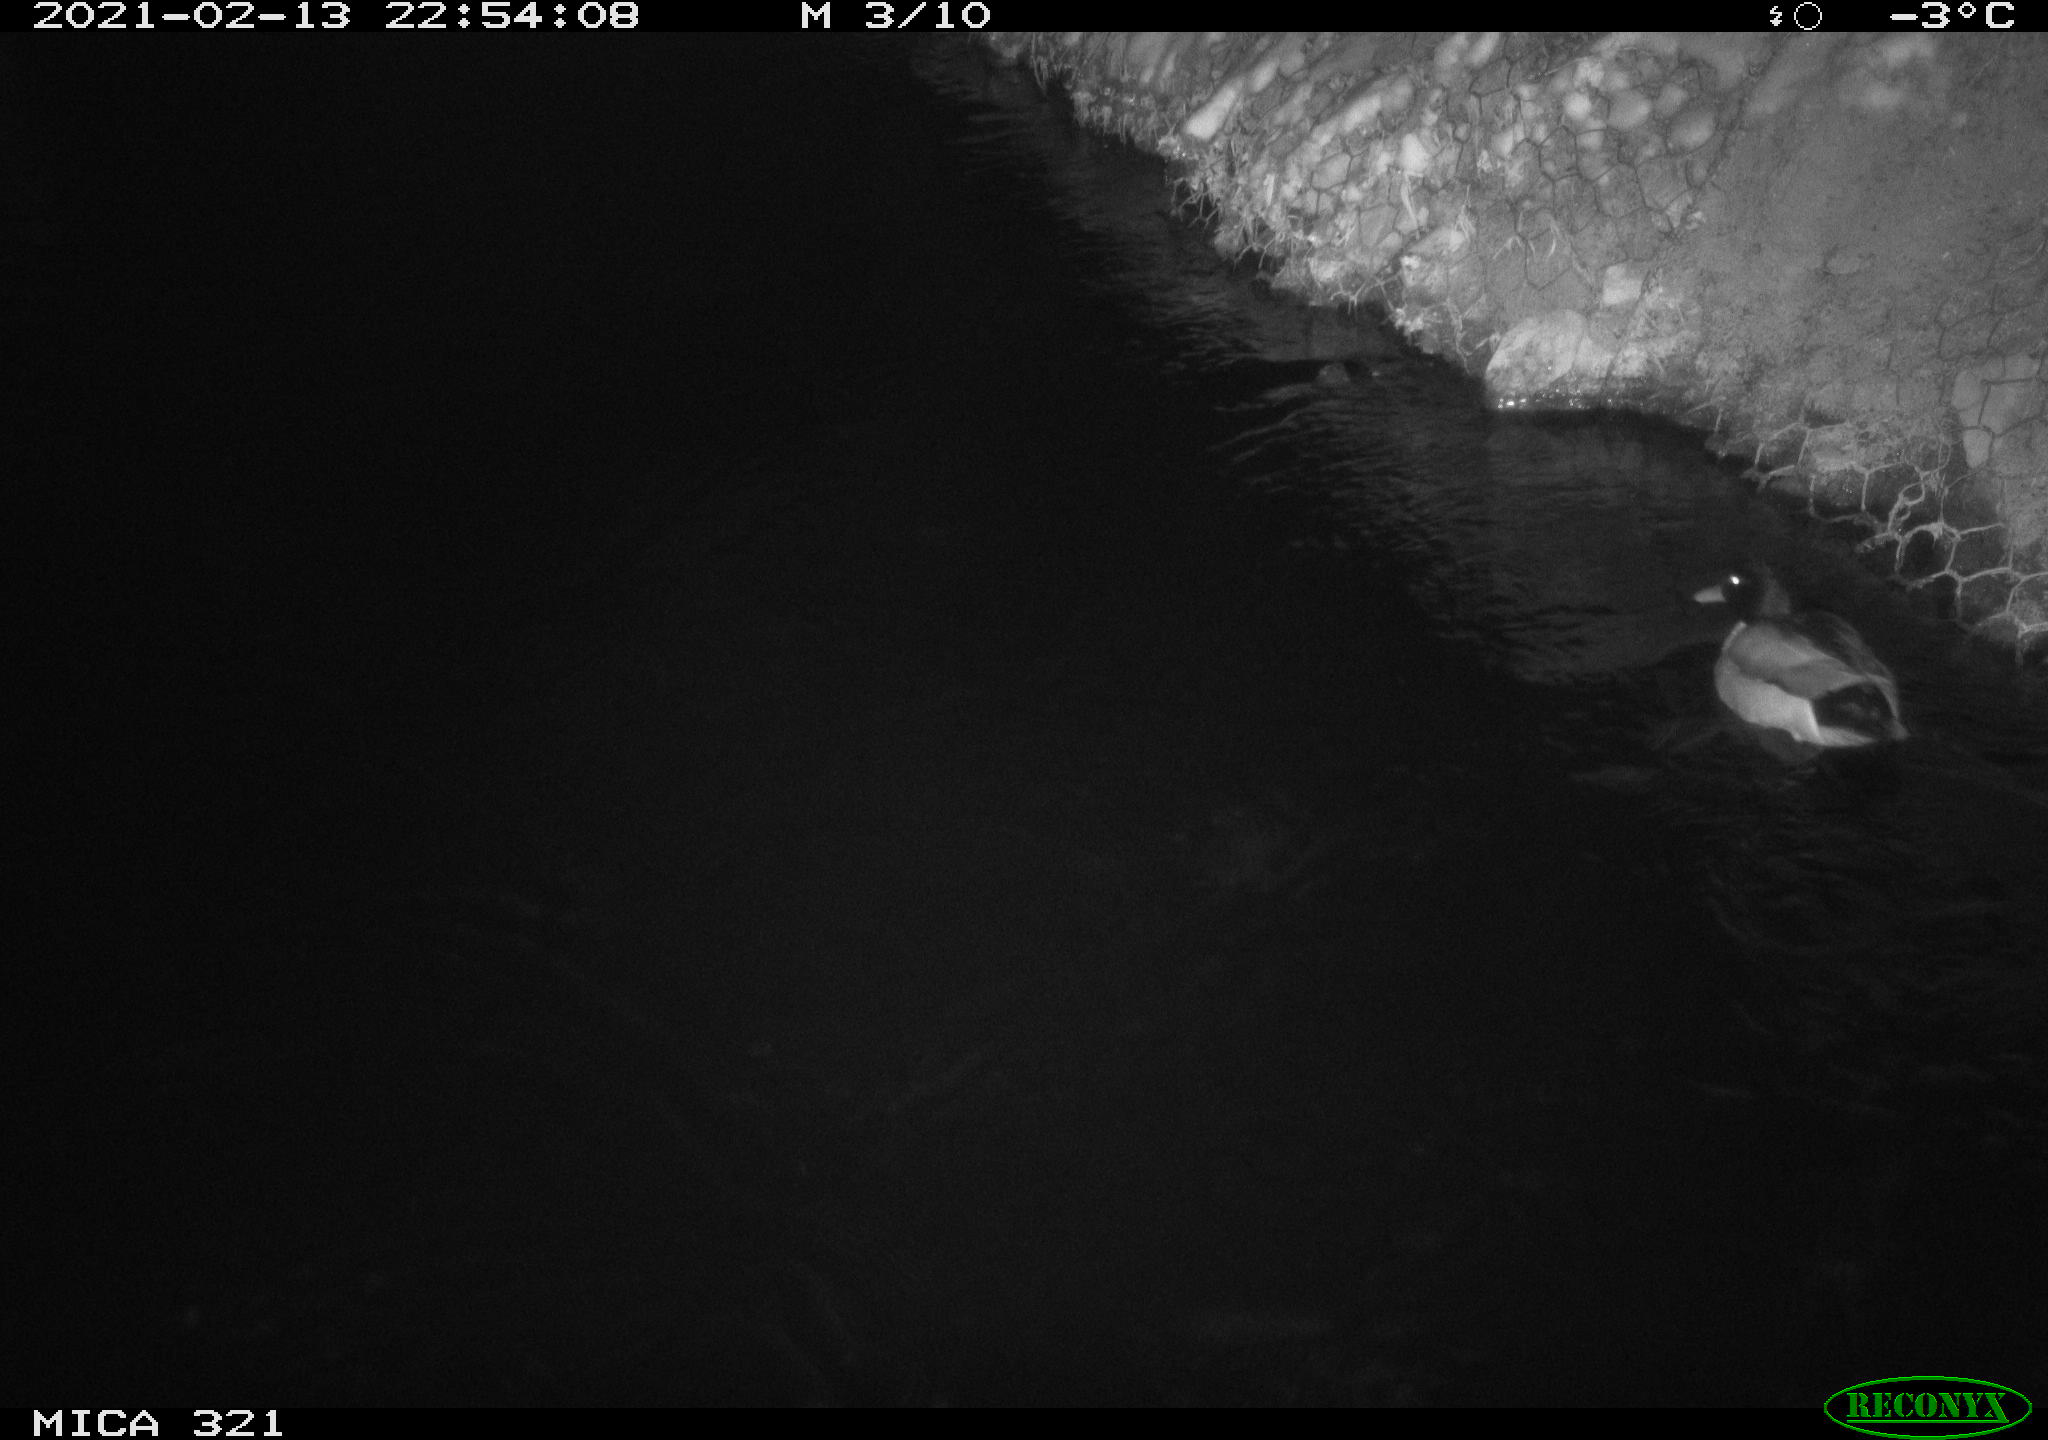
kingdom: Animalia
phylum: Chordata
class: Aves
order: Anseriformes
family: Anatidae
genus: Anas
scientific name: Anas platyrhynchos
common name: Mallard
